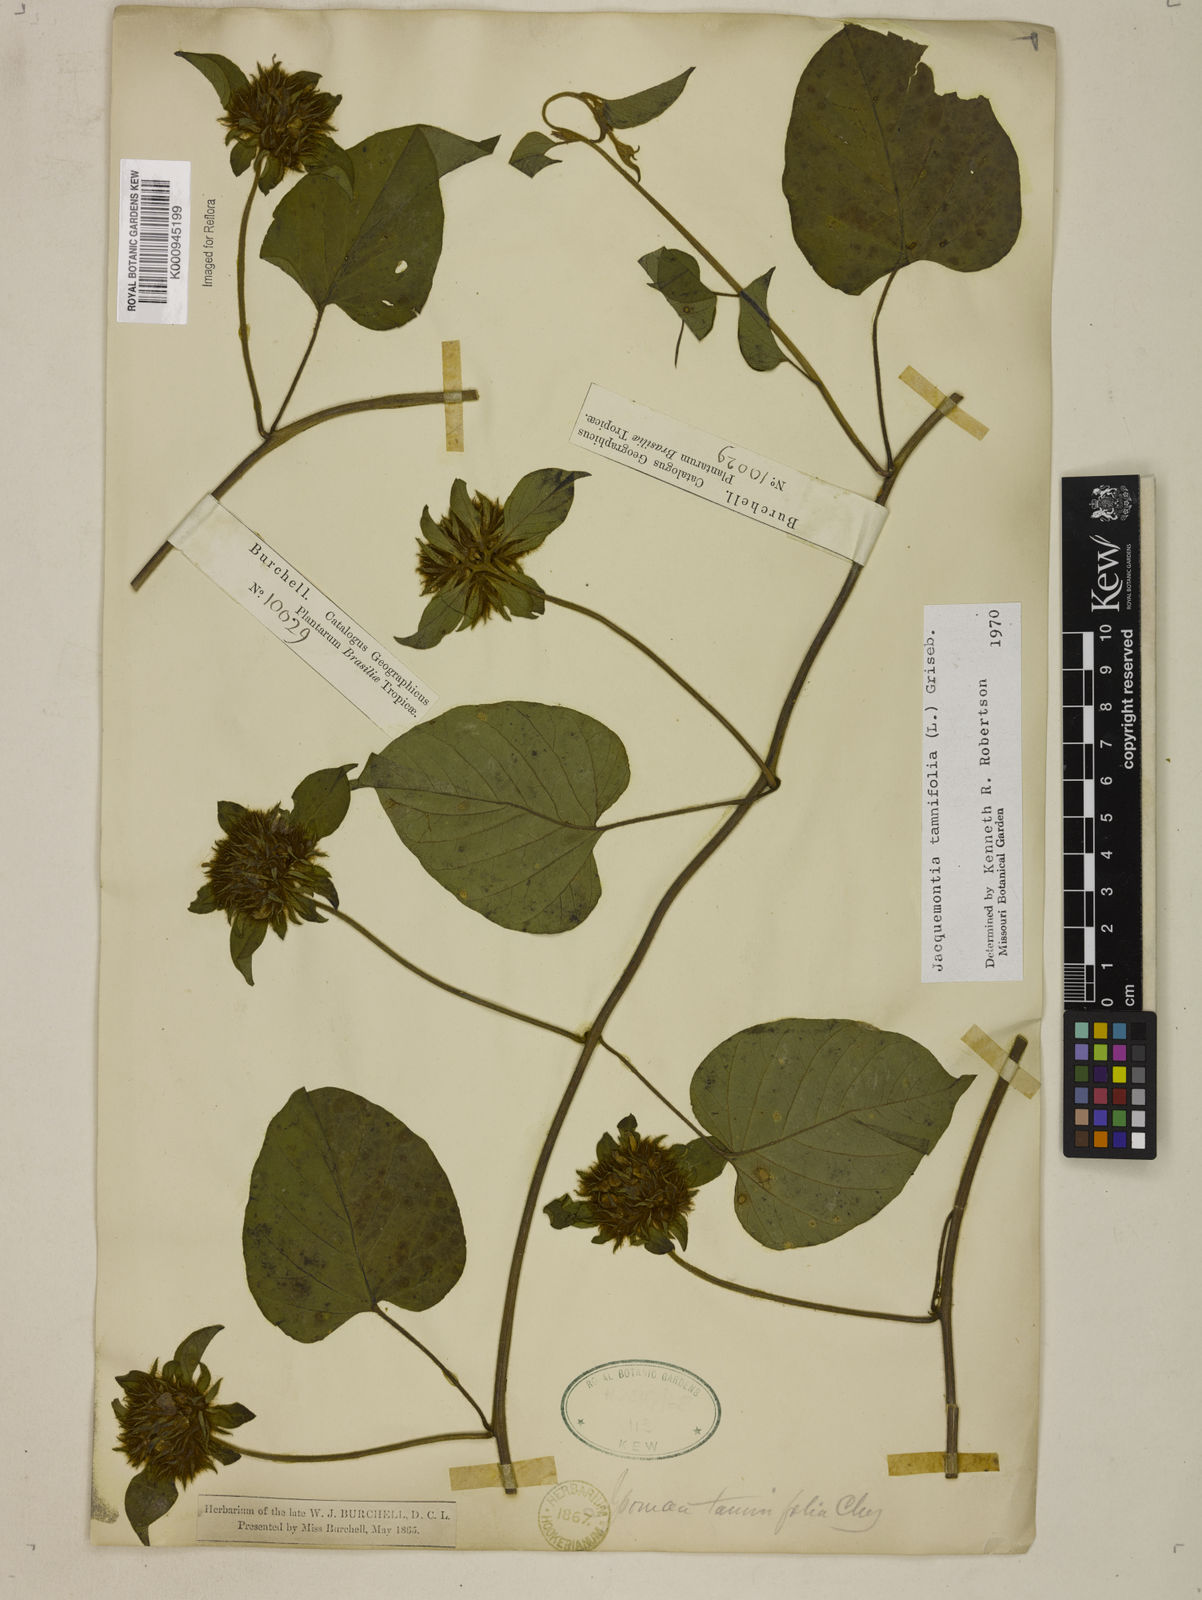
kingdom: Plantae
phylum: Tracheophyta
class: Magnoliopsida
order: Solanales
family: Convolvulaceae
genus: Jacquemontia
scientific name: Jacquemontia tamnifolia
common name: Hairy clustervine
